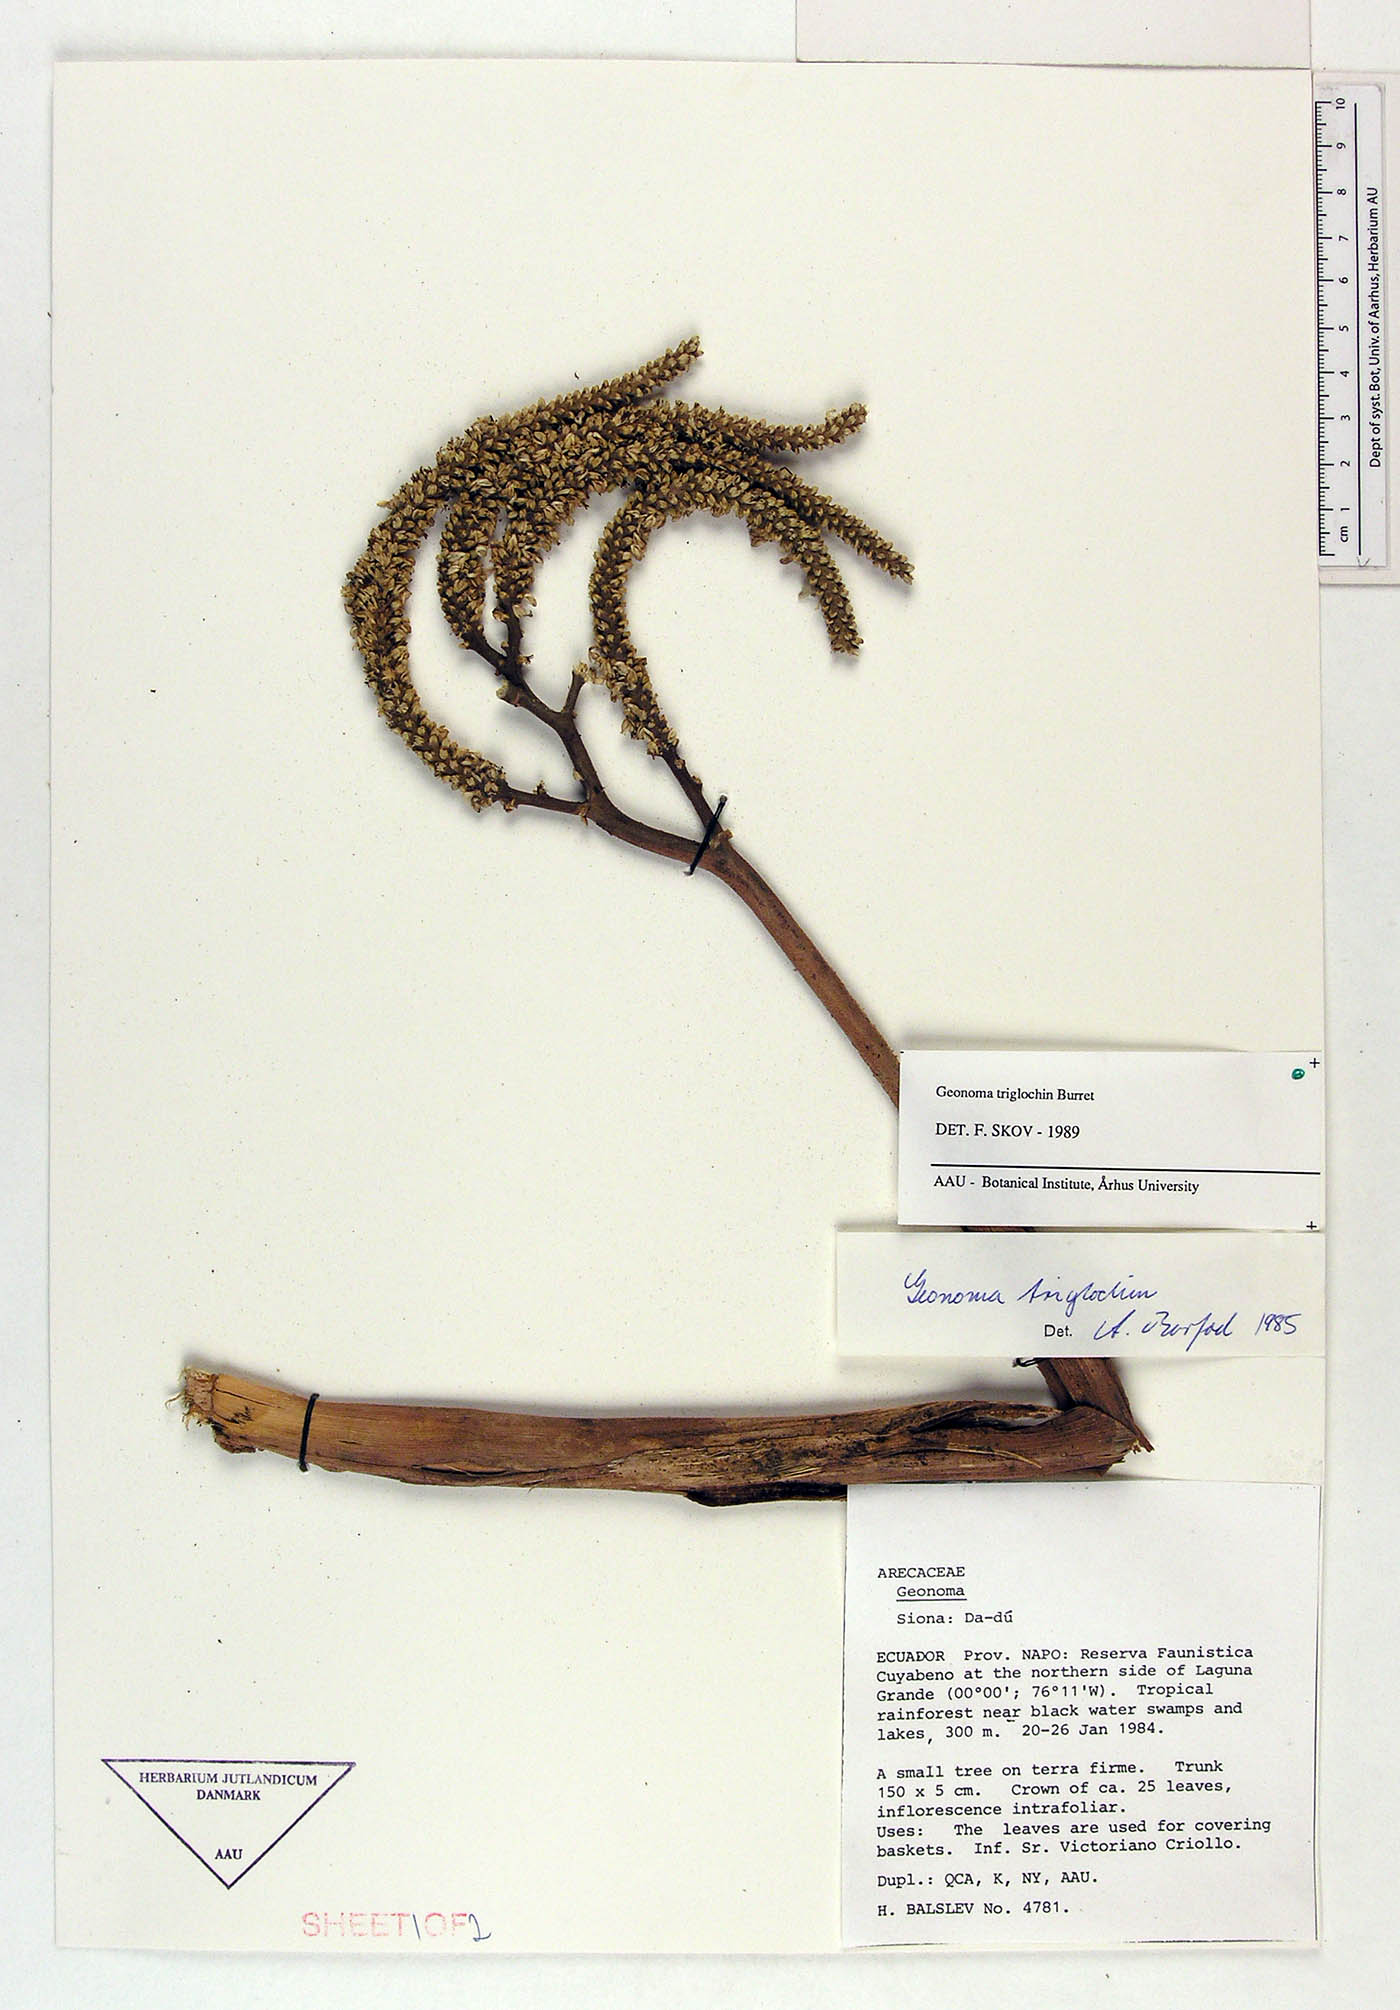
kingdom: Plantae
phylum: Tracheophyta
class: Liliopsida
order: Arecales
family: Arecaceae
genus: Geonoma
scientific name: Geonoma triglochin
